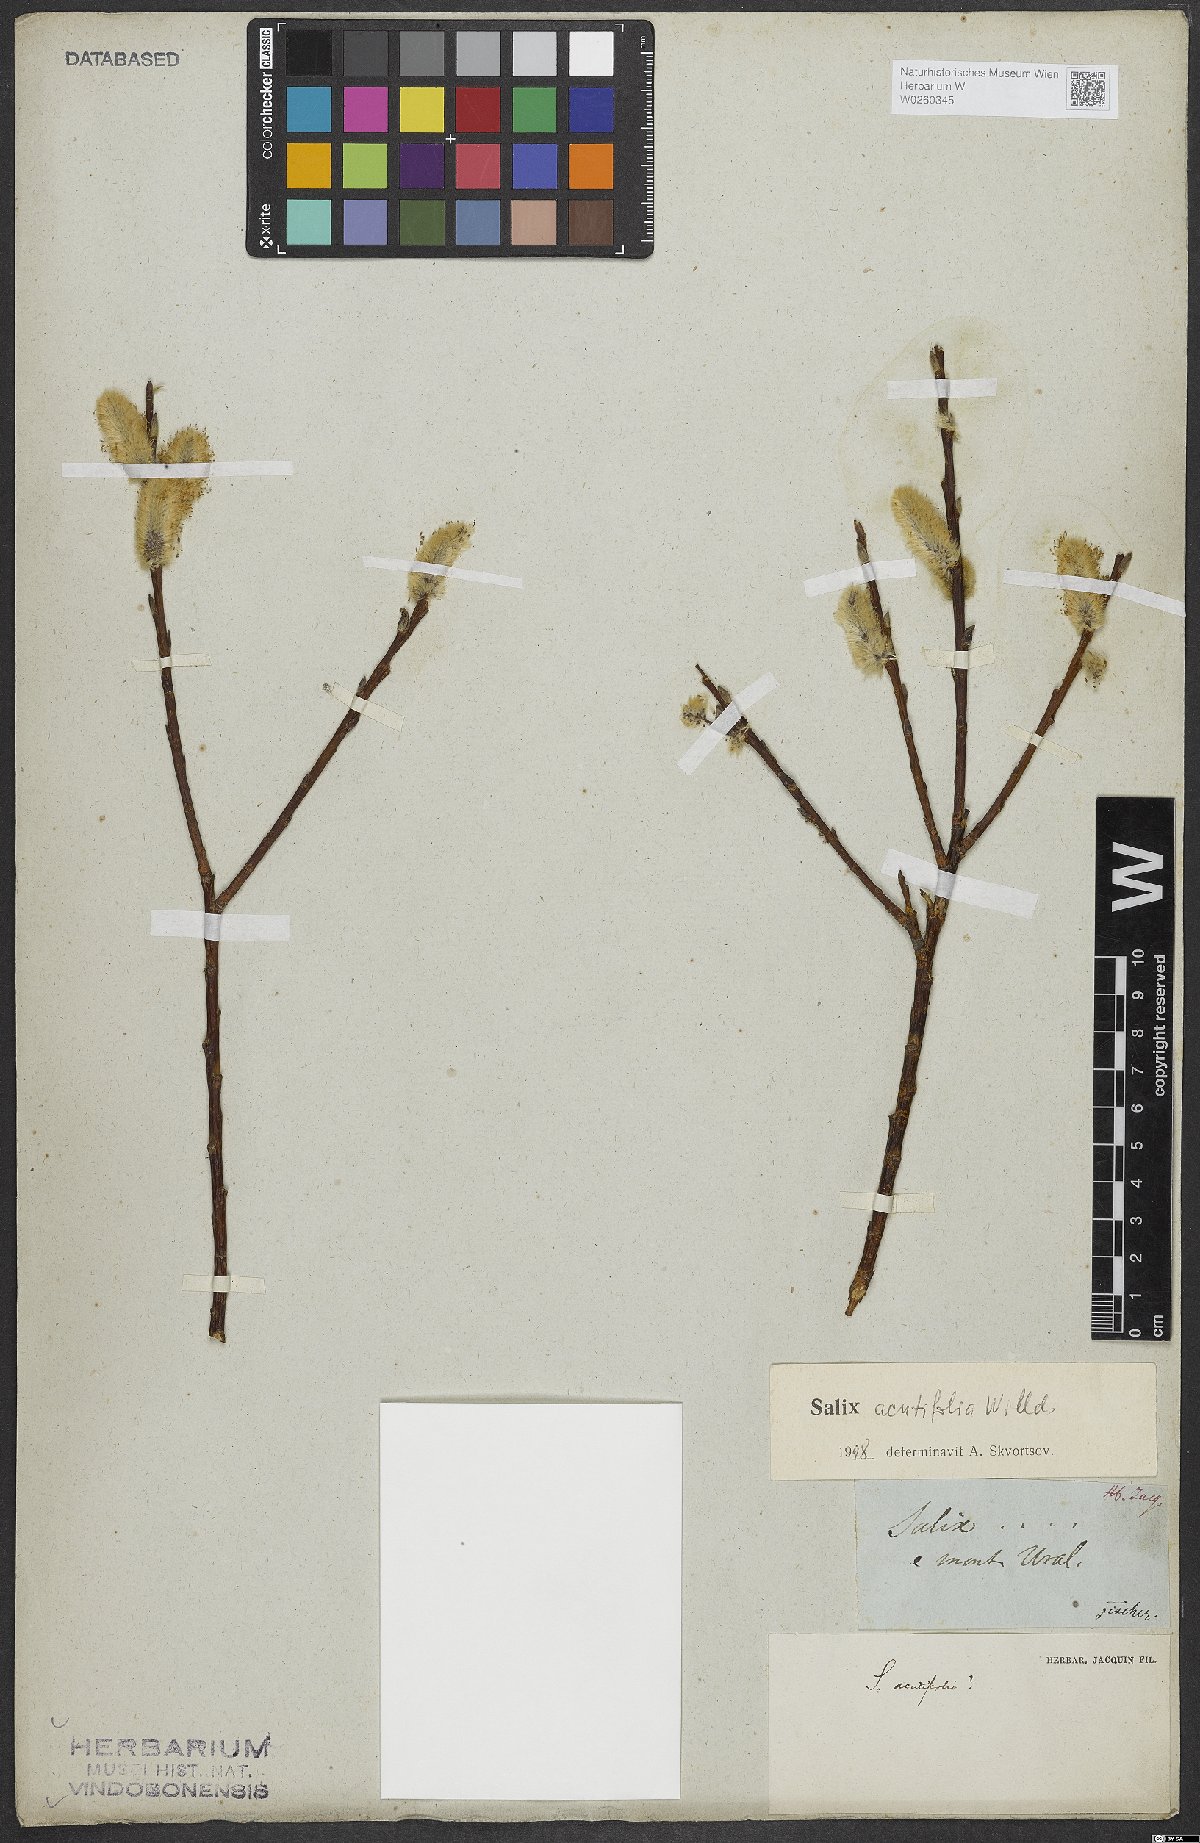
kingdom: Plantae
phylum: Tracheophyta
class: Magnoliopsida
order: Malpighiales
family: Salicaceae
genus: Salix
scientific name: Salix acutifolia
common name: Siberian violet-willow
